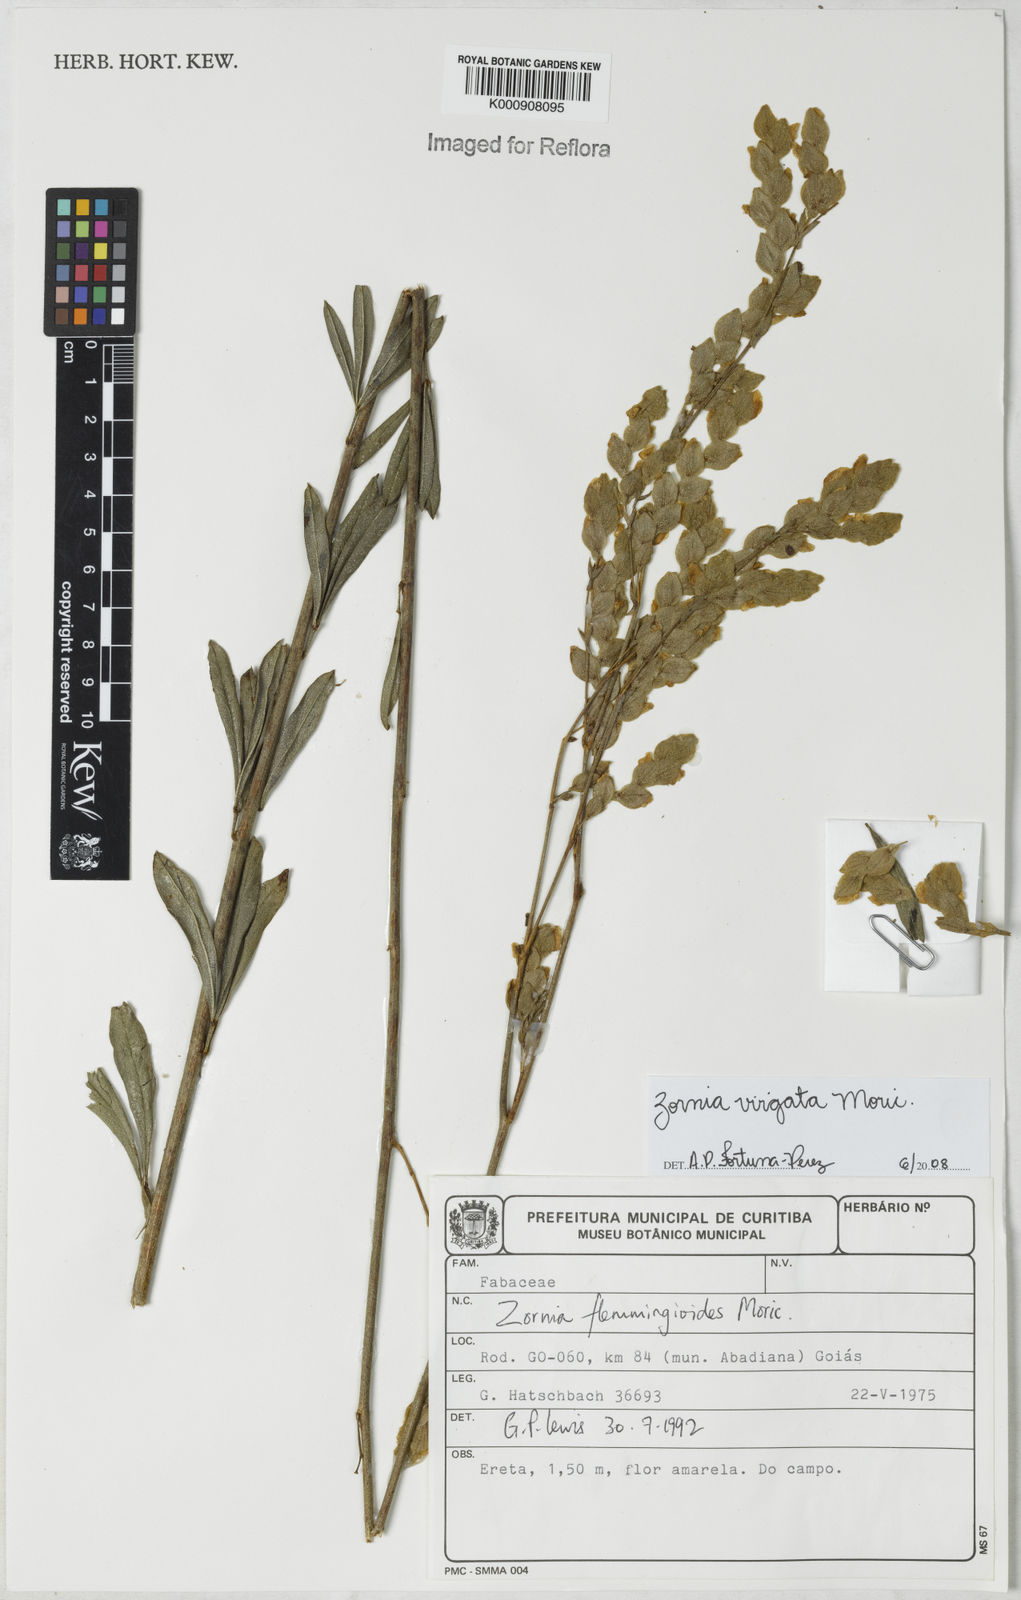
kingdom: Plantae
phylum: Tracheophyta
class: Magnoliopsida
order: Fabales
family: Fabaceae
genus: Zornia
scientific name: Zornia virgata
